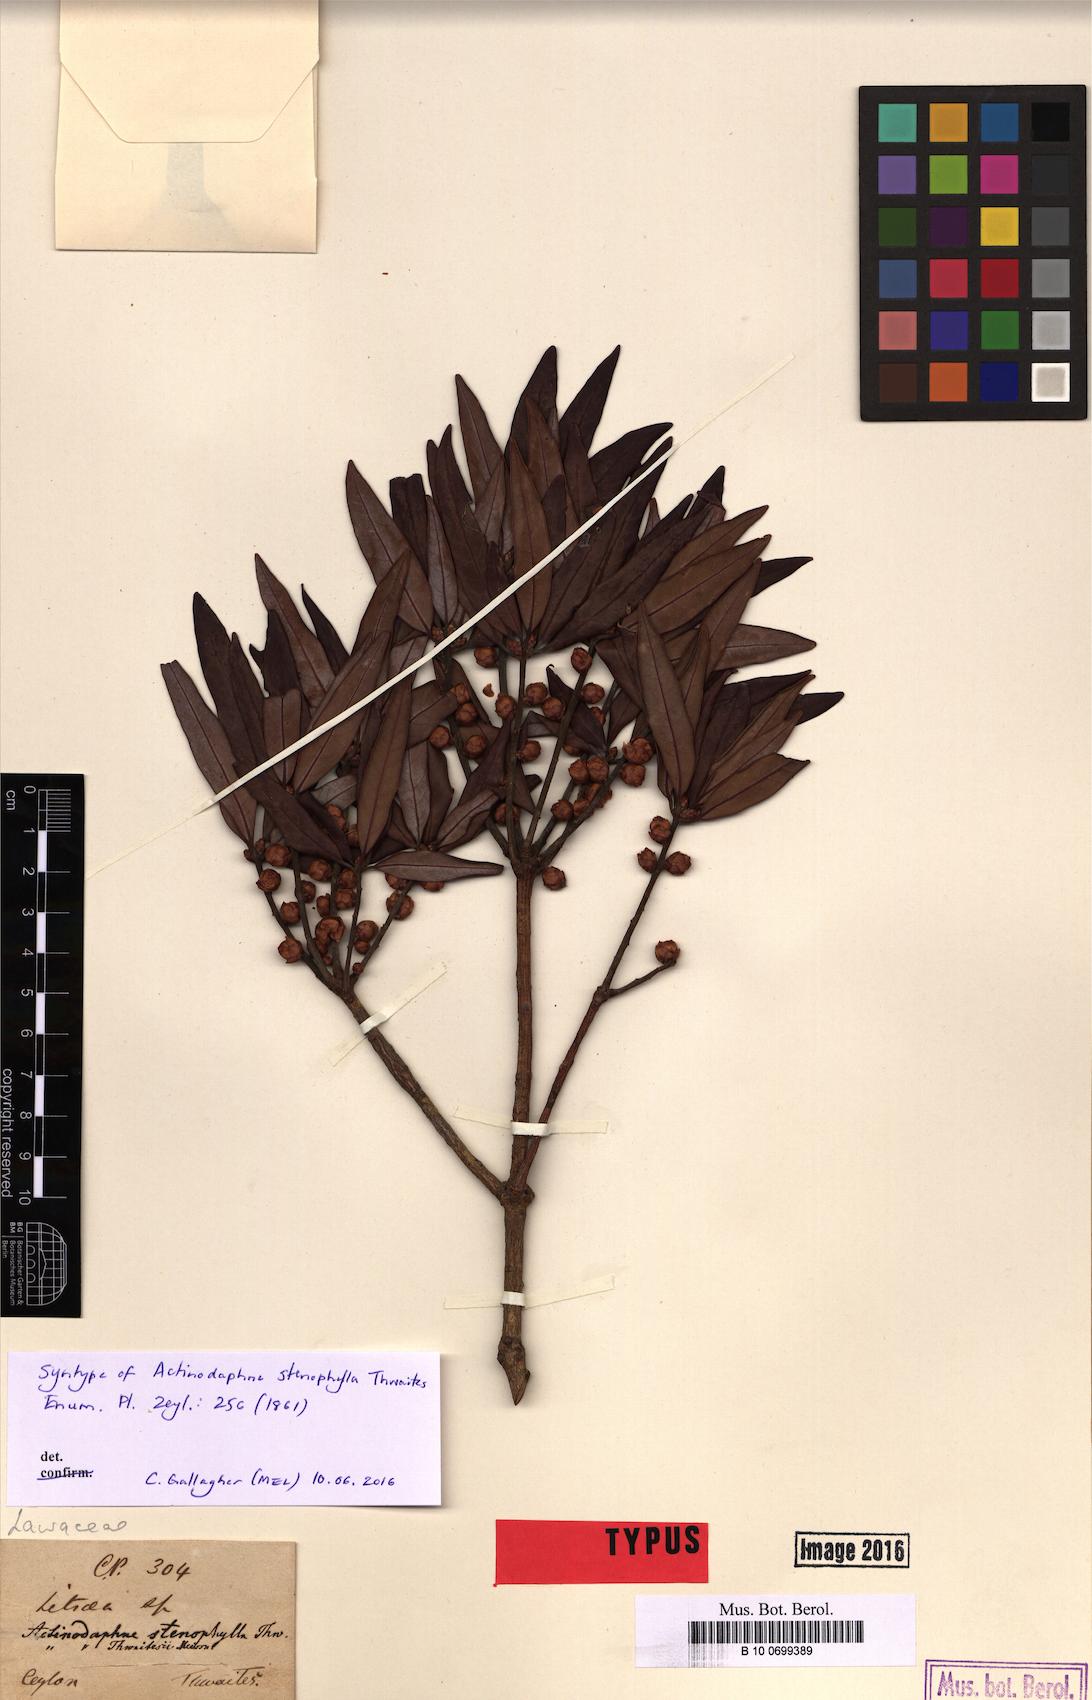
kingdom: Plantae
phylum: Tracheophyta
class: Magnoliopsida
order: Laurales
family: Lauraceae
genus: Actinodaphne
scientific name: Actinodaphne stenophylla
